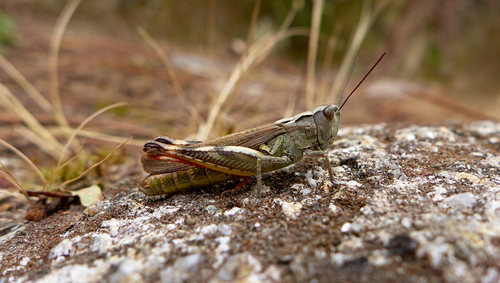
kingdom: Animalia
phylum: Arthropoda
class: Insecta
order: Orthoptera
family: Acrididae
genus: Chorthippus
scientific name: Chorthippus binotatus
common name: Two-marked grasshopper
